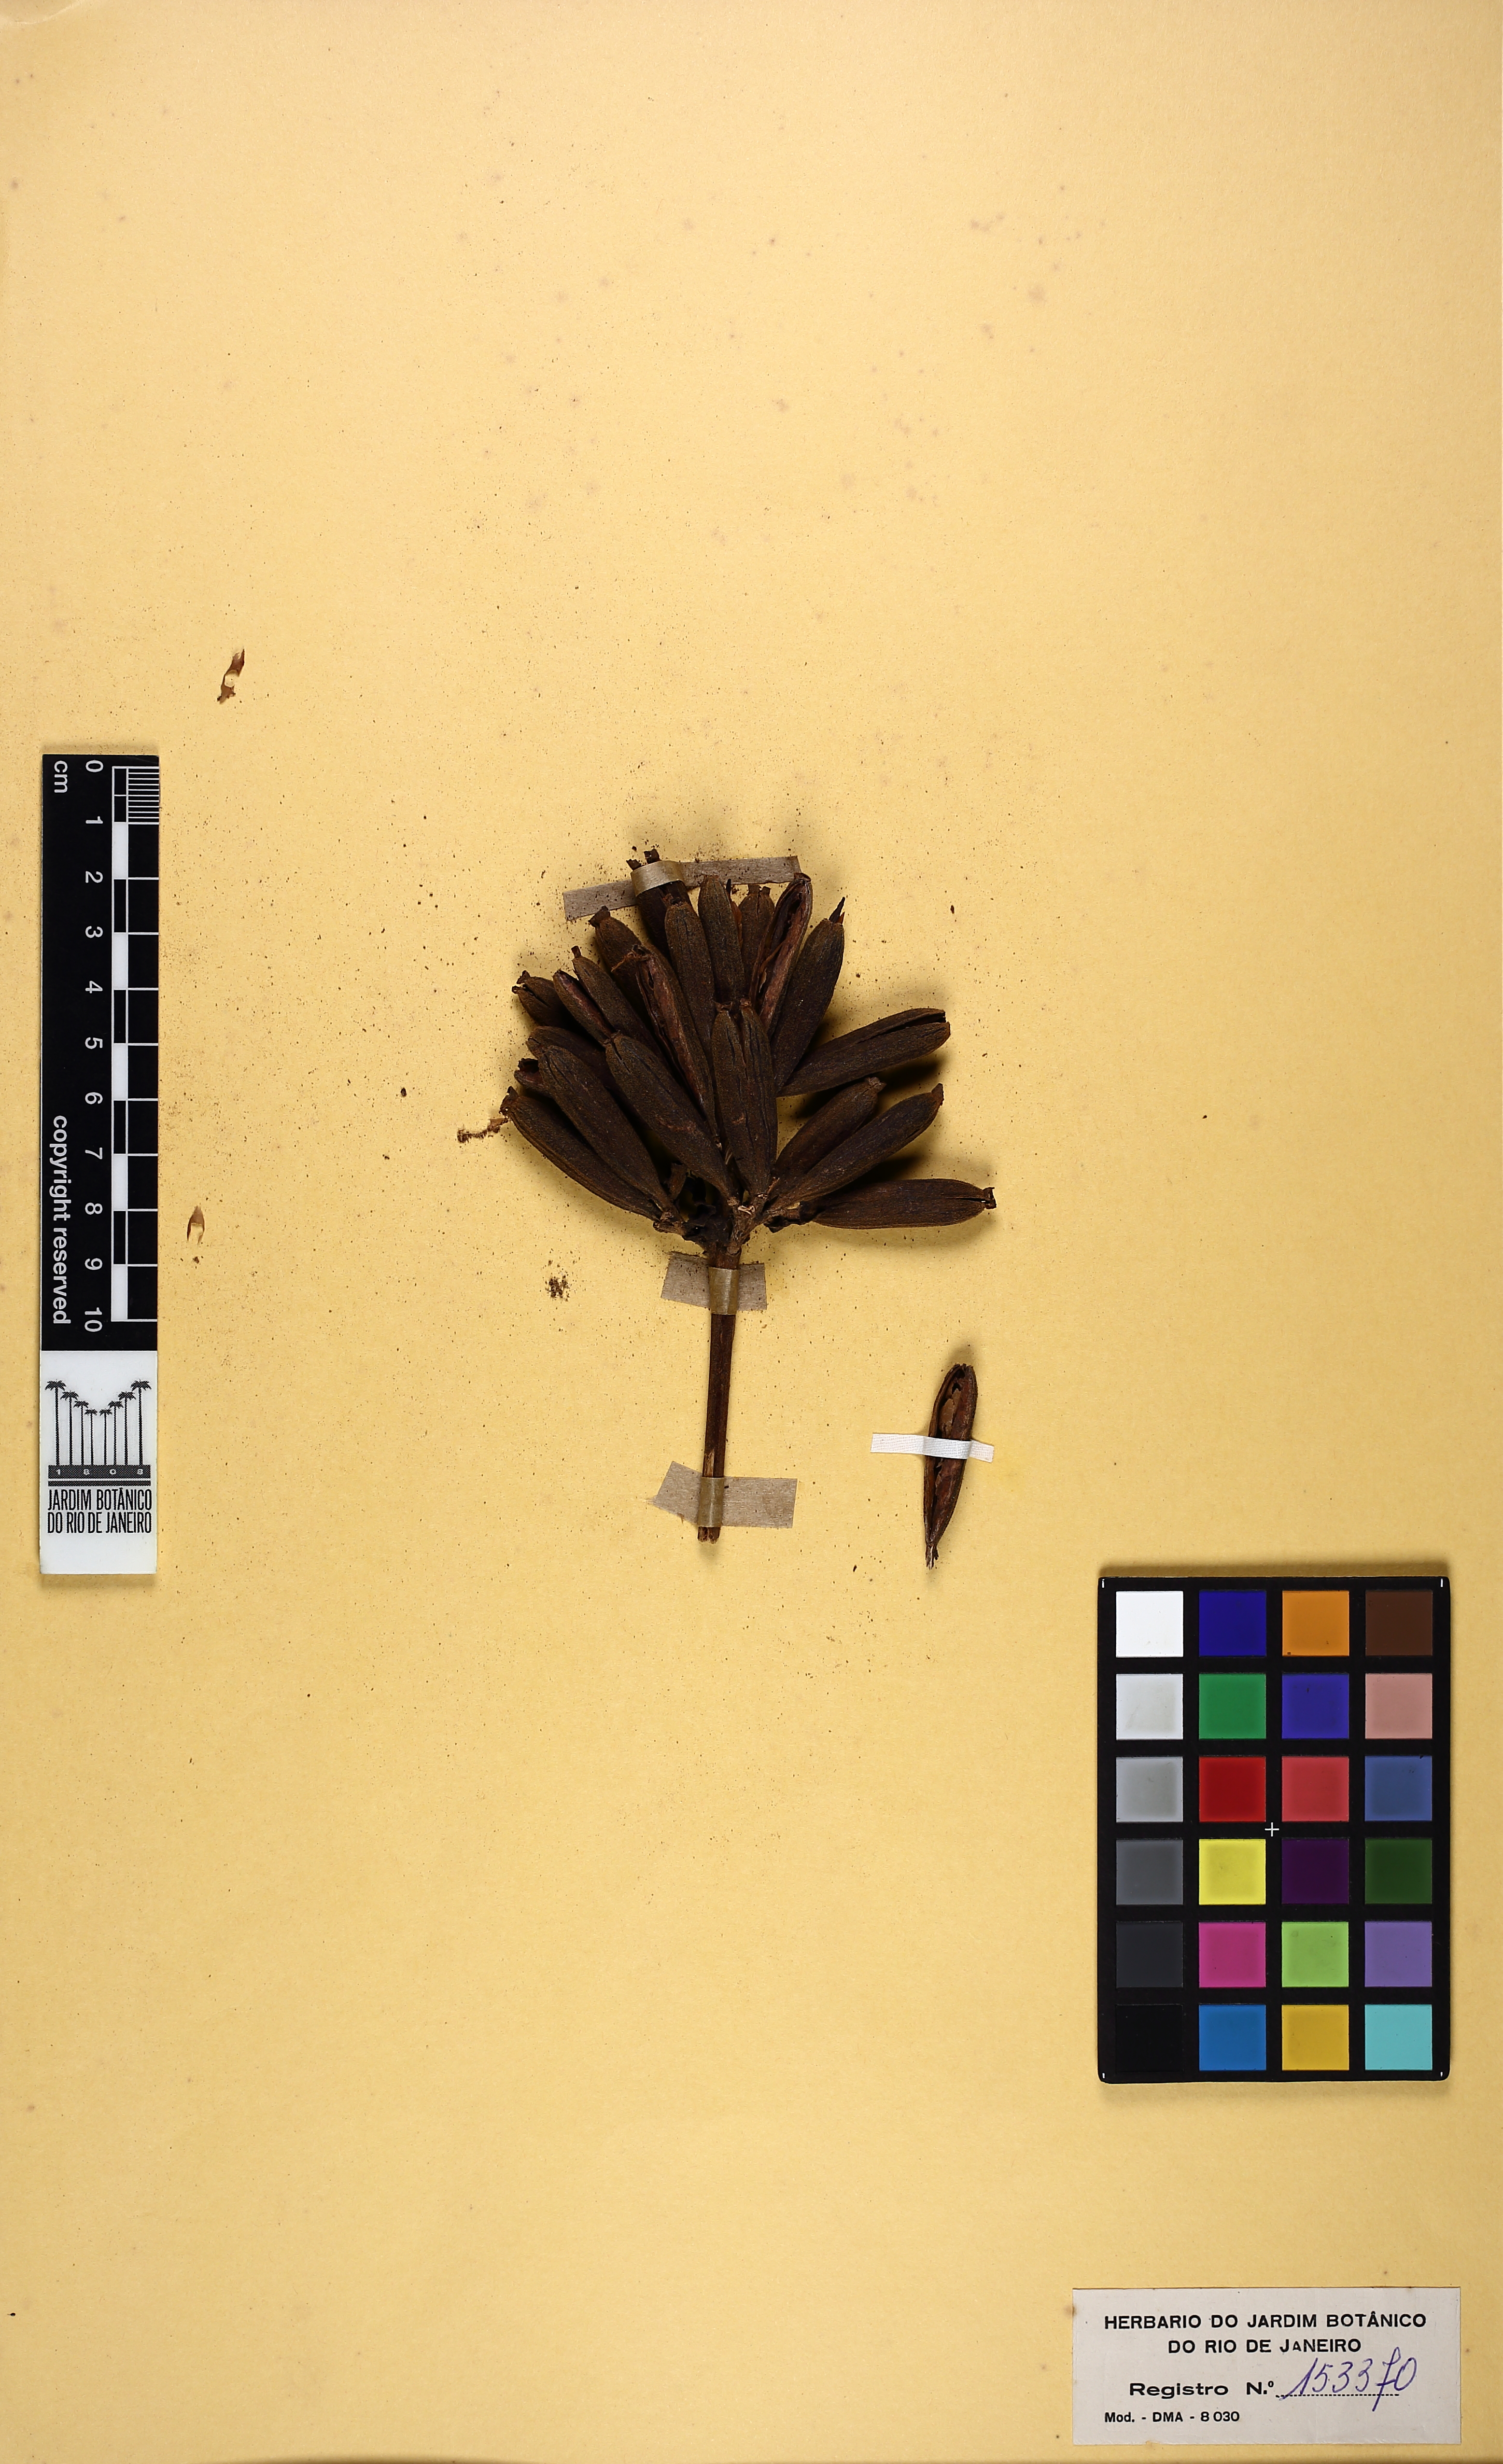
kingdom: Plantae
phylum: Tracheophyta
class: Magnoliopsida
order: Gentianales
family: Rubiaceae
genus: Remijia
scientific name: Remijia ulei
